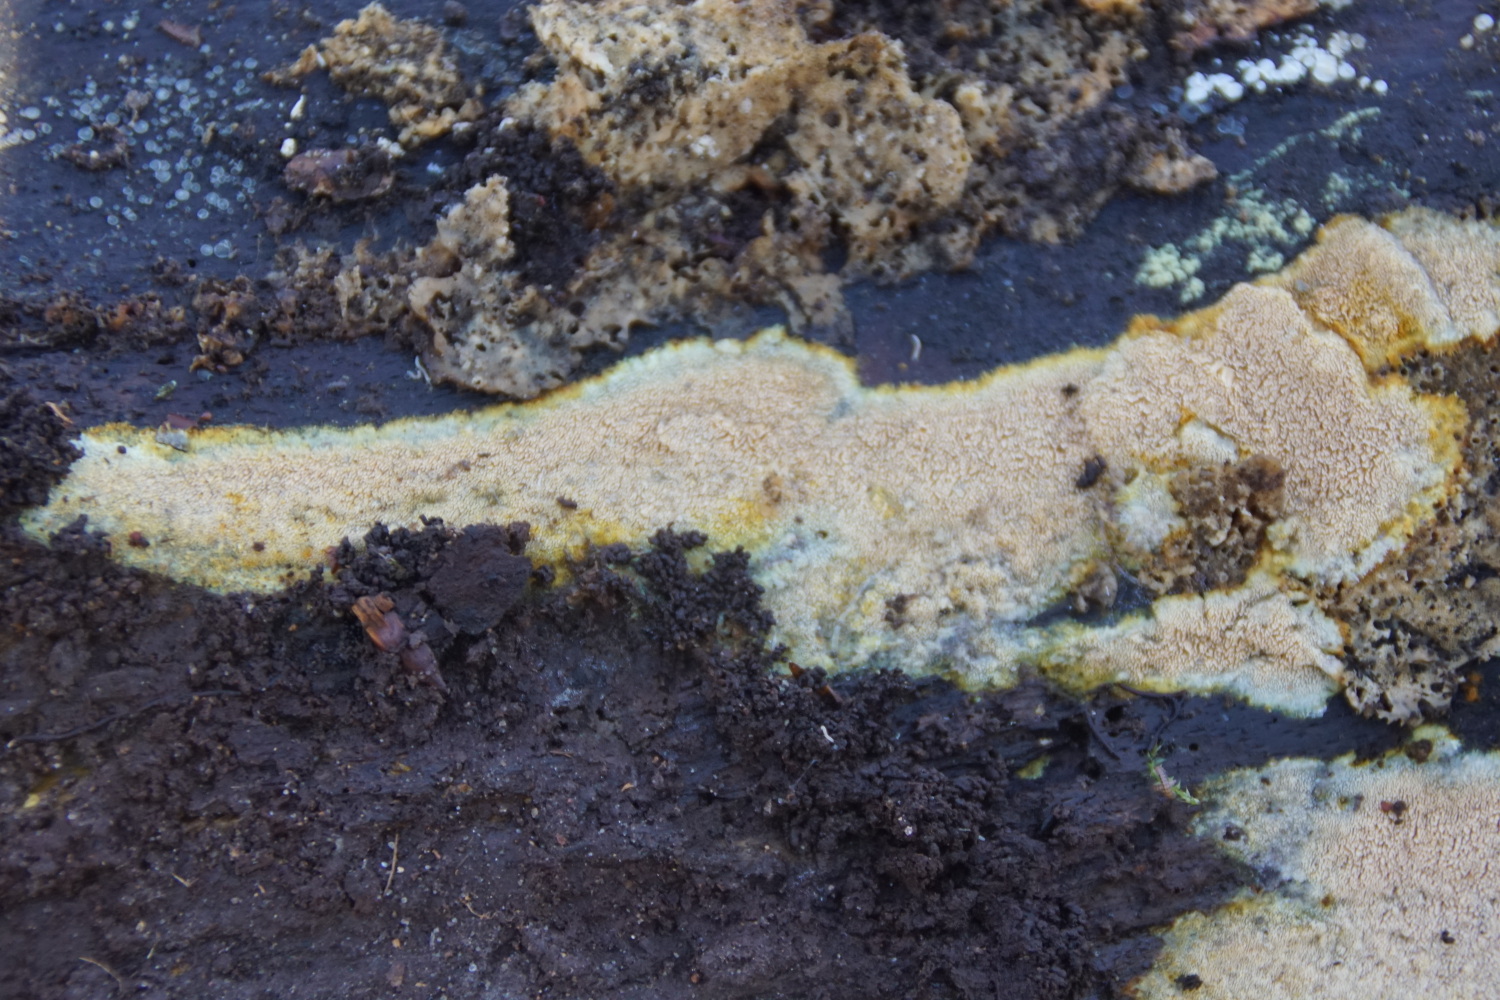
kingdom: Fungi
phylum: Basidiomycota
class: Agaricomycetes
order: Polyporales
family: Meruliaceae
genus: Mycoacia
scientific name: Mycoacia aurea
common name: lang vokspig
